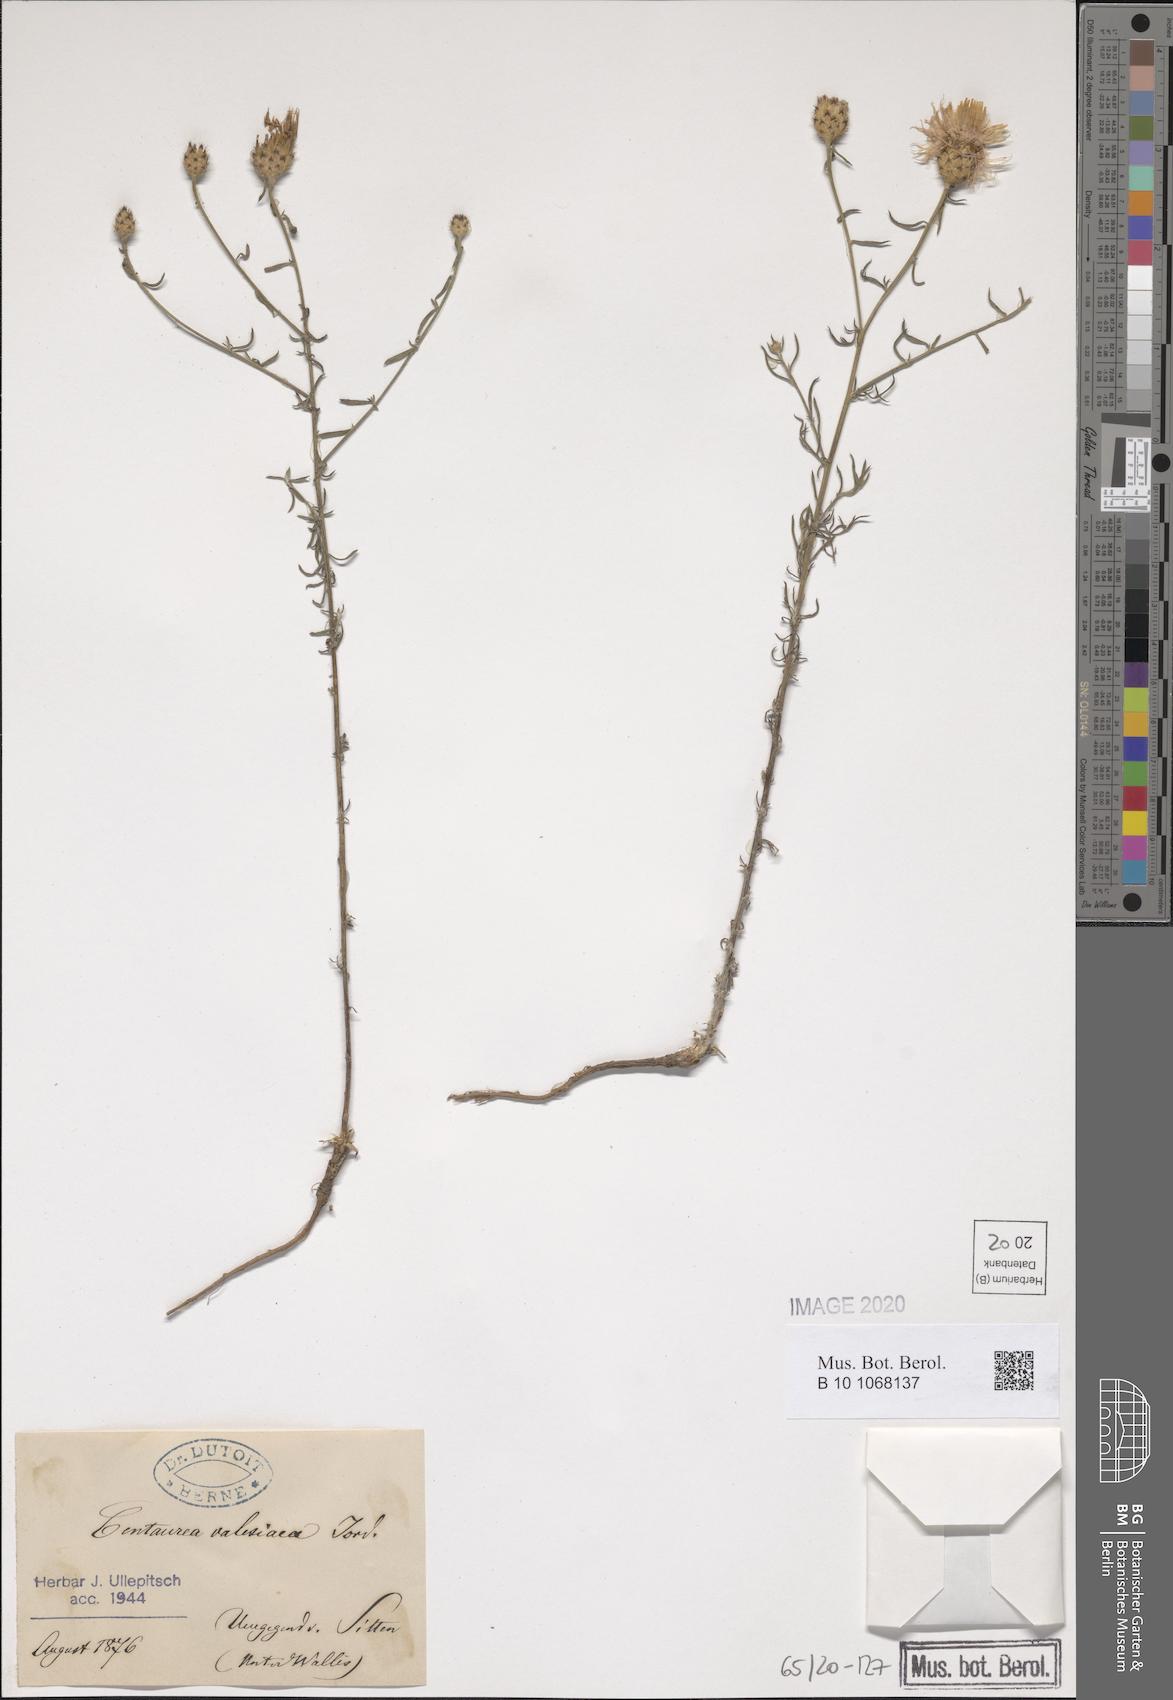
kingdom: Plantae
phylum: Tracheophyta
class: Magnoliopsida
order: Asterales
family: Asteraceae
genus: Centaurea
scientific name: Centaurea valesiaca
